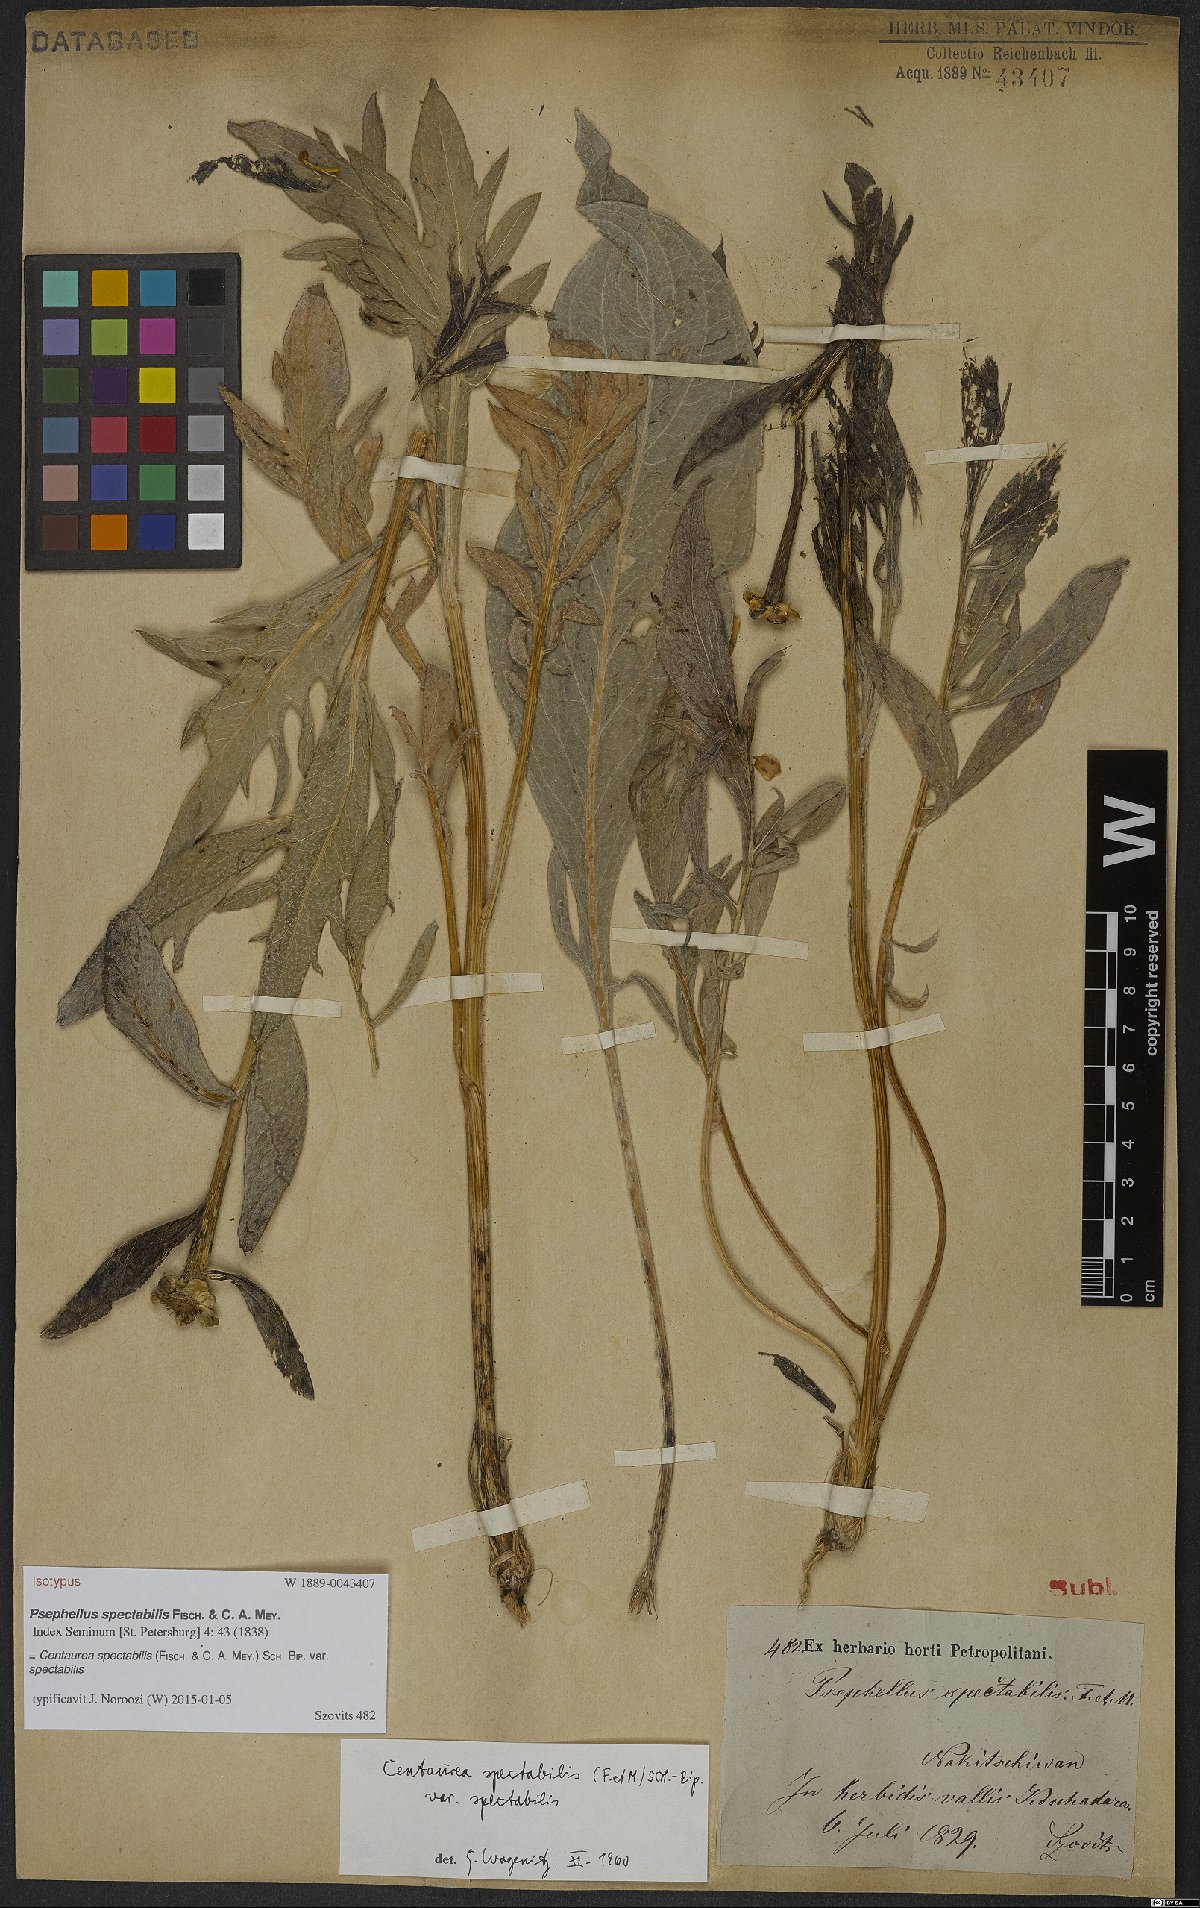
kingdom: Plantae
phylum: Tracheophyta
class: Magnoliopsida
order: Asterales
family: Asteraceae
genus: Centaurea
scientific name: Centaurea spectabilis
